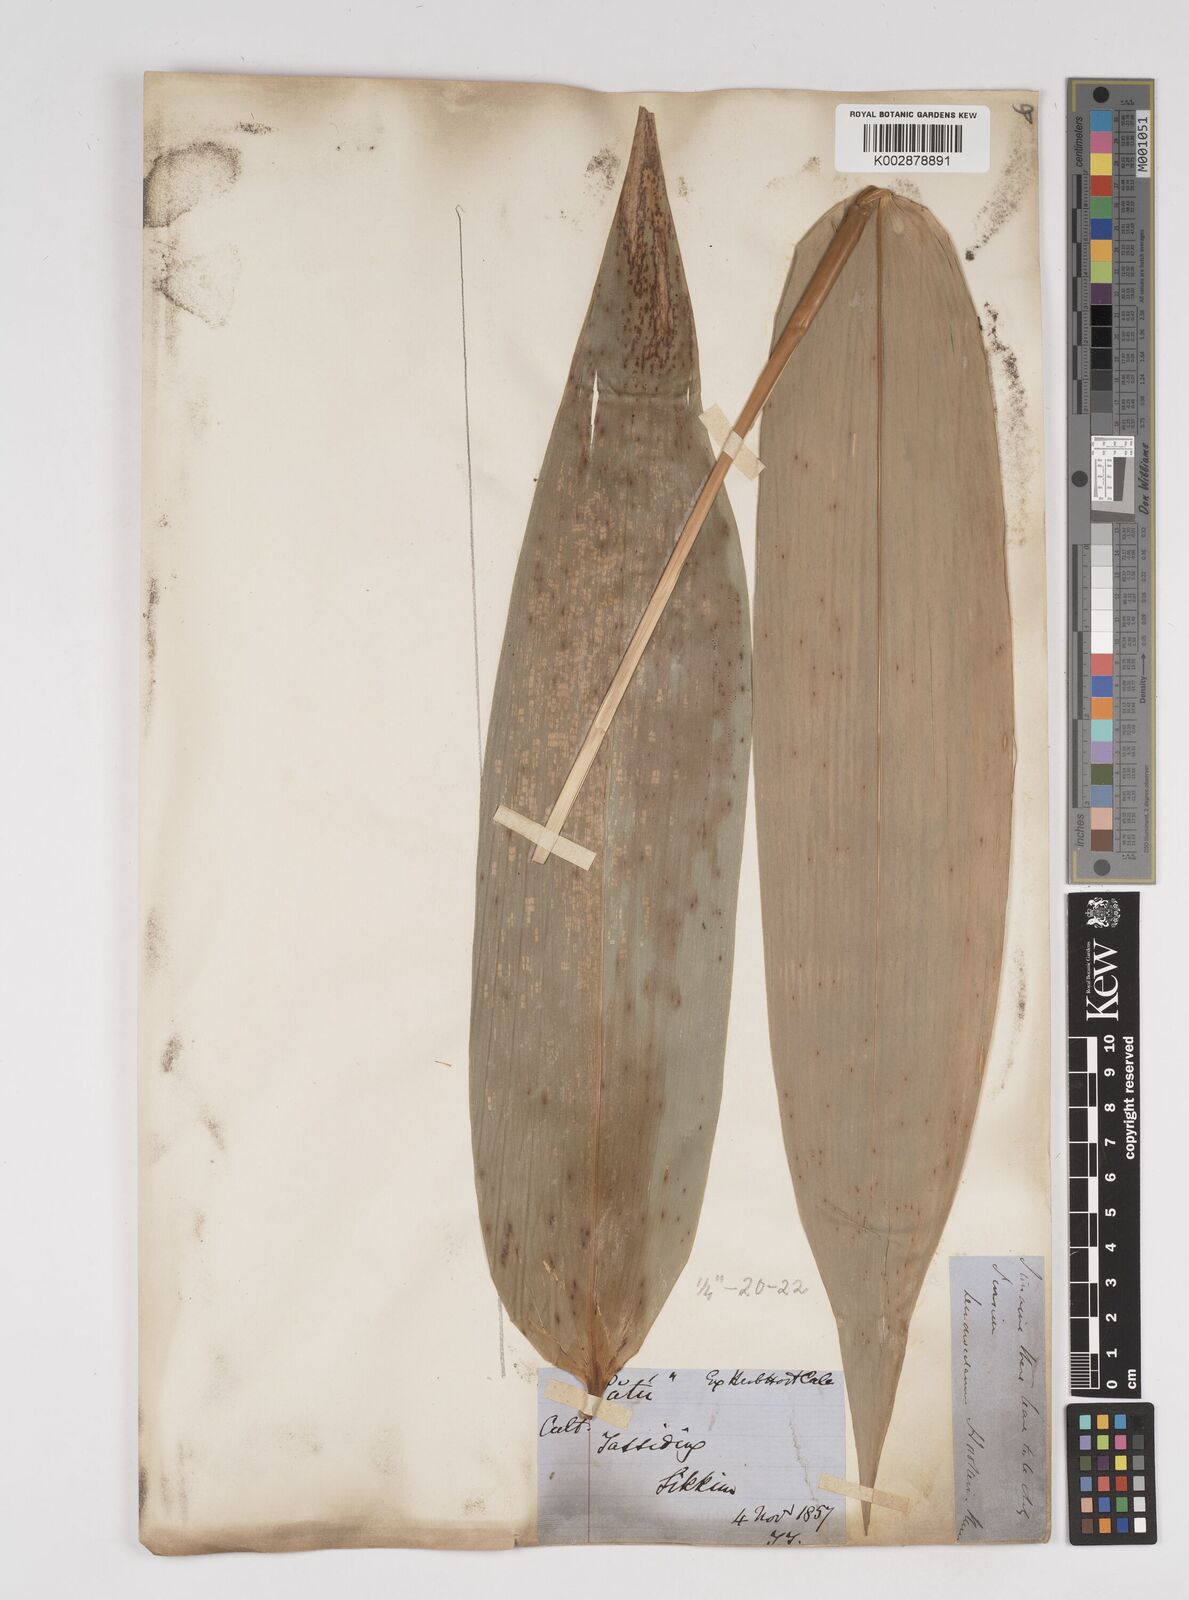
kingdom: Plantae
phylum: Tracheophyta
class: Liliopsida
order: Poales
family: Poaceae
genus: Dendrocalamus
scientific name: Dendrocalamus hookeri
